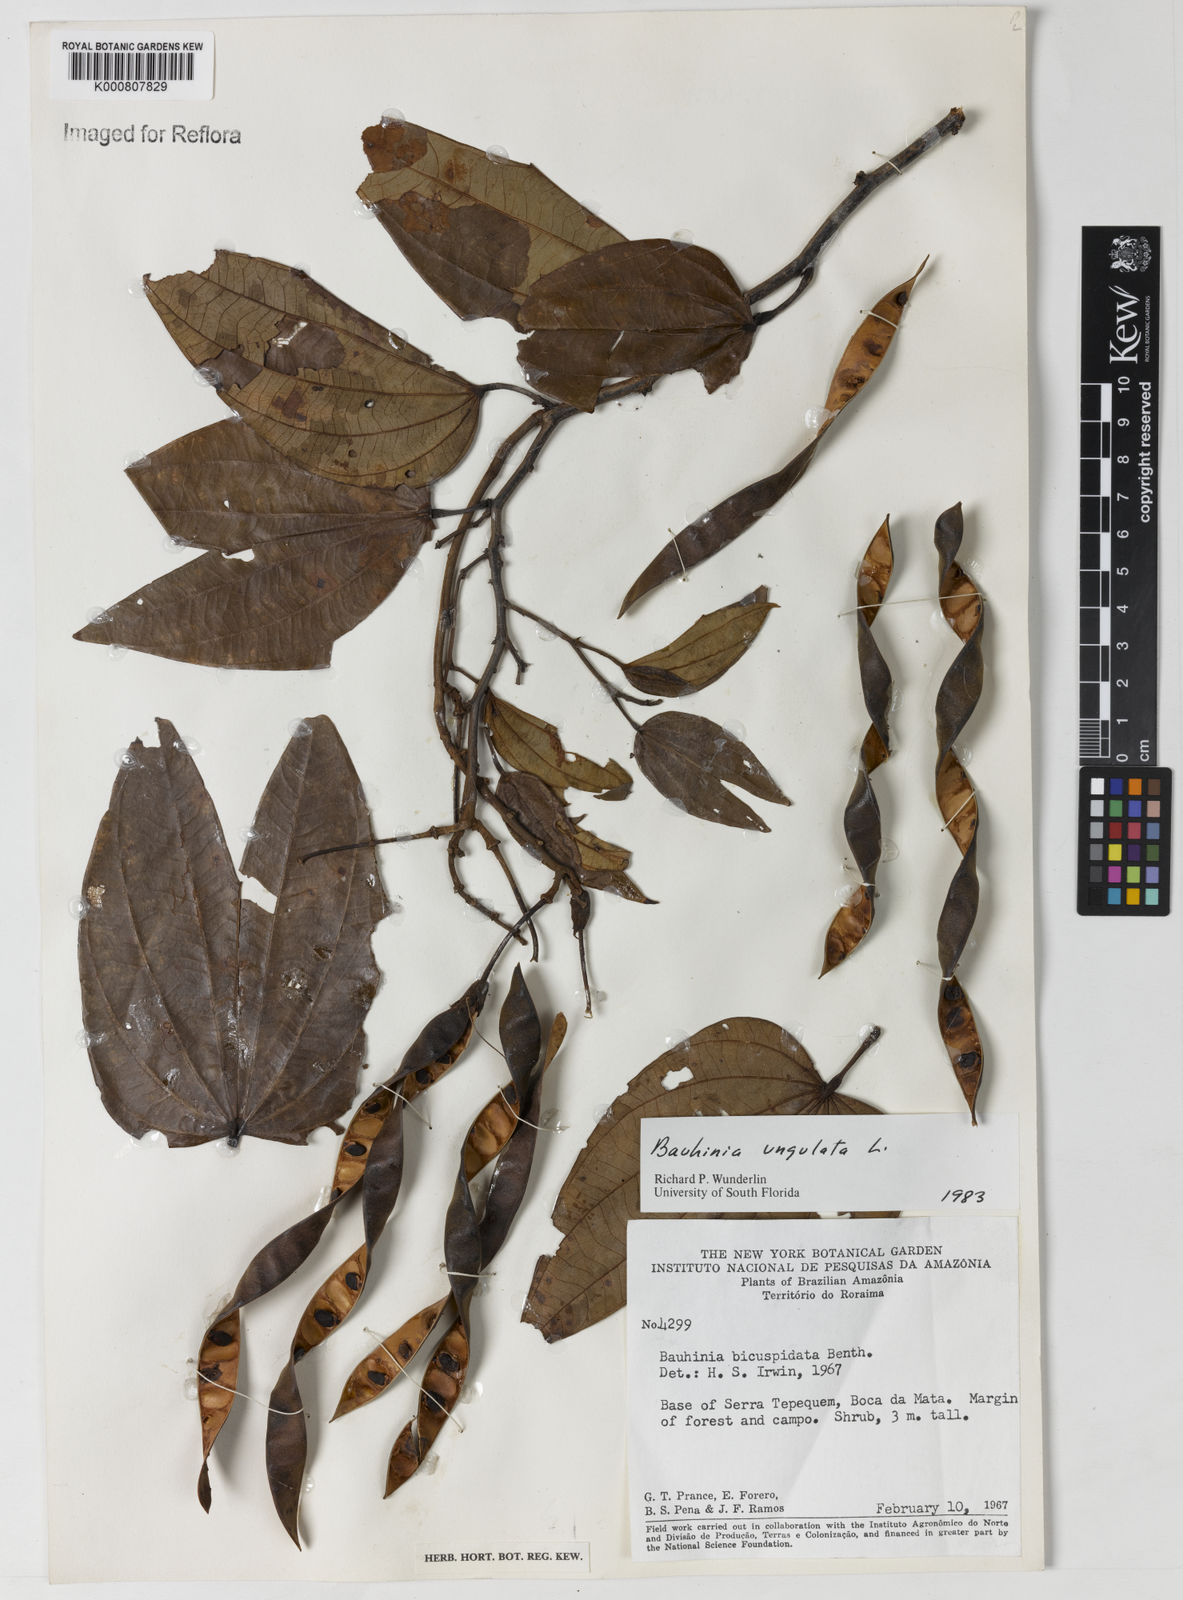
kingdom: Plantae
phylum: Tracheophyta
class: Magnoliopsida
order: Fabales
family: Fabaceae
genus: Bauhinia
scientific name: Bauhinia ungulata
